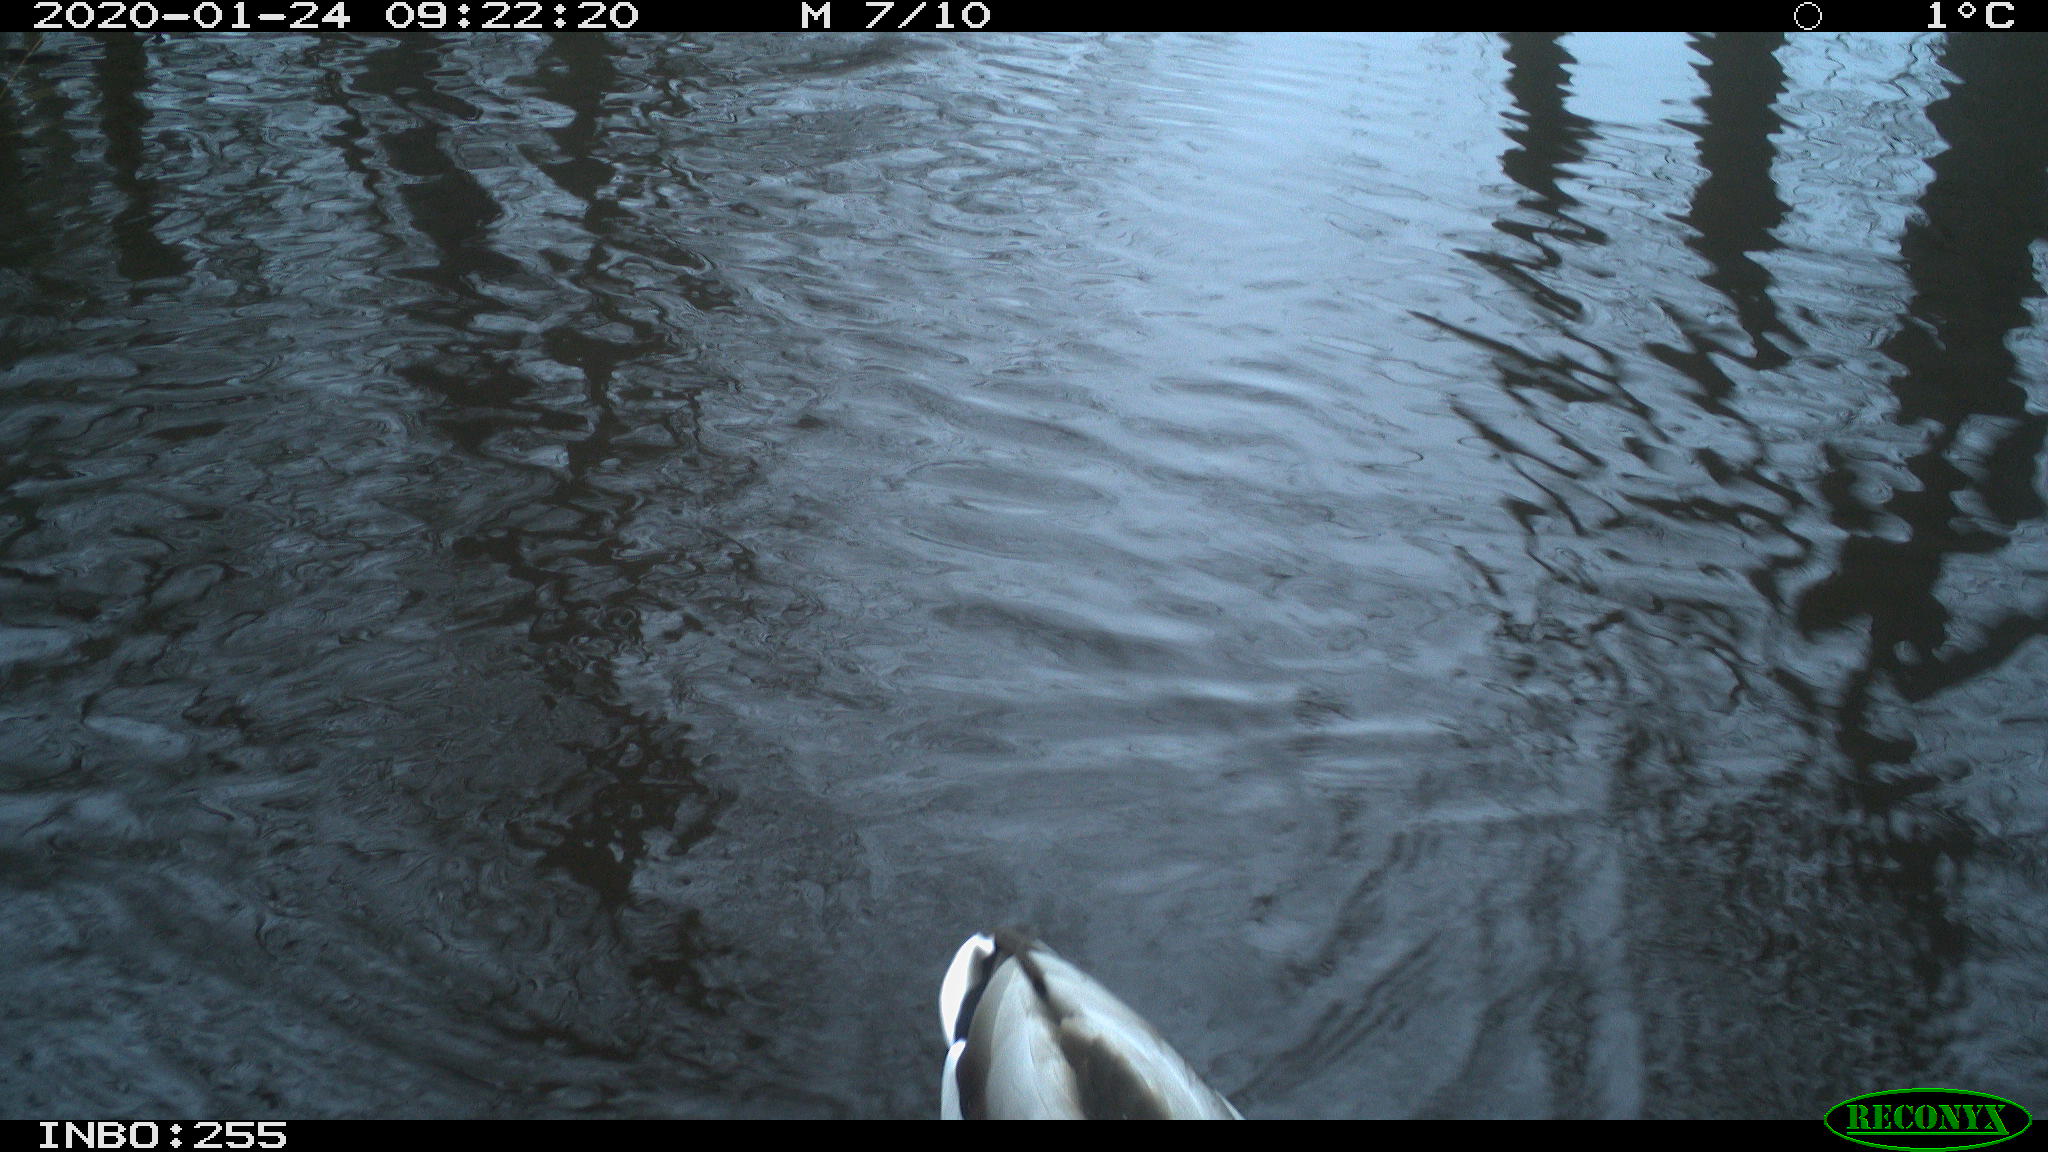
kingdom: Animalia
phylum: Chordata
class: Aves
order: Anseriformes
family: Anatidae
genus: Anas
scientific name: Anas platyrhynchos
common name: Mallard
